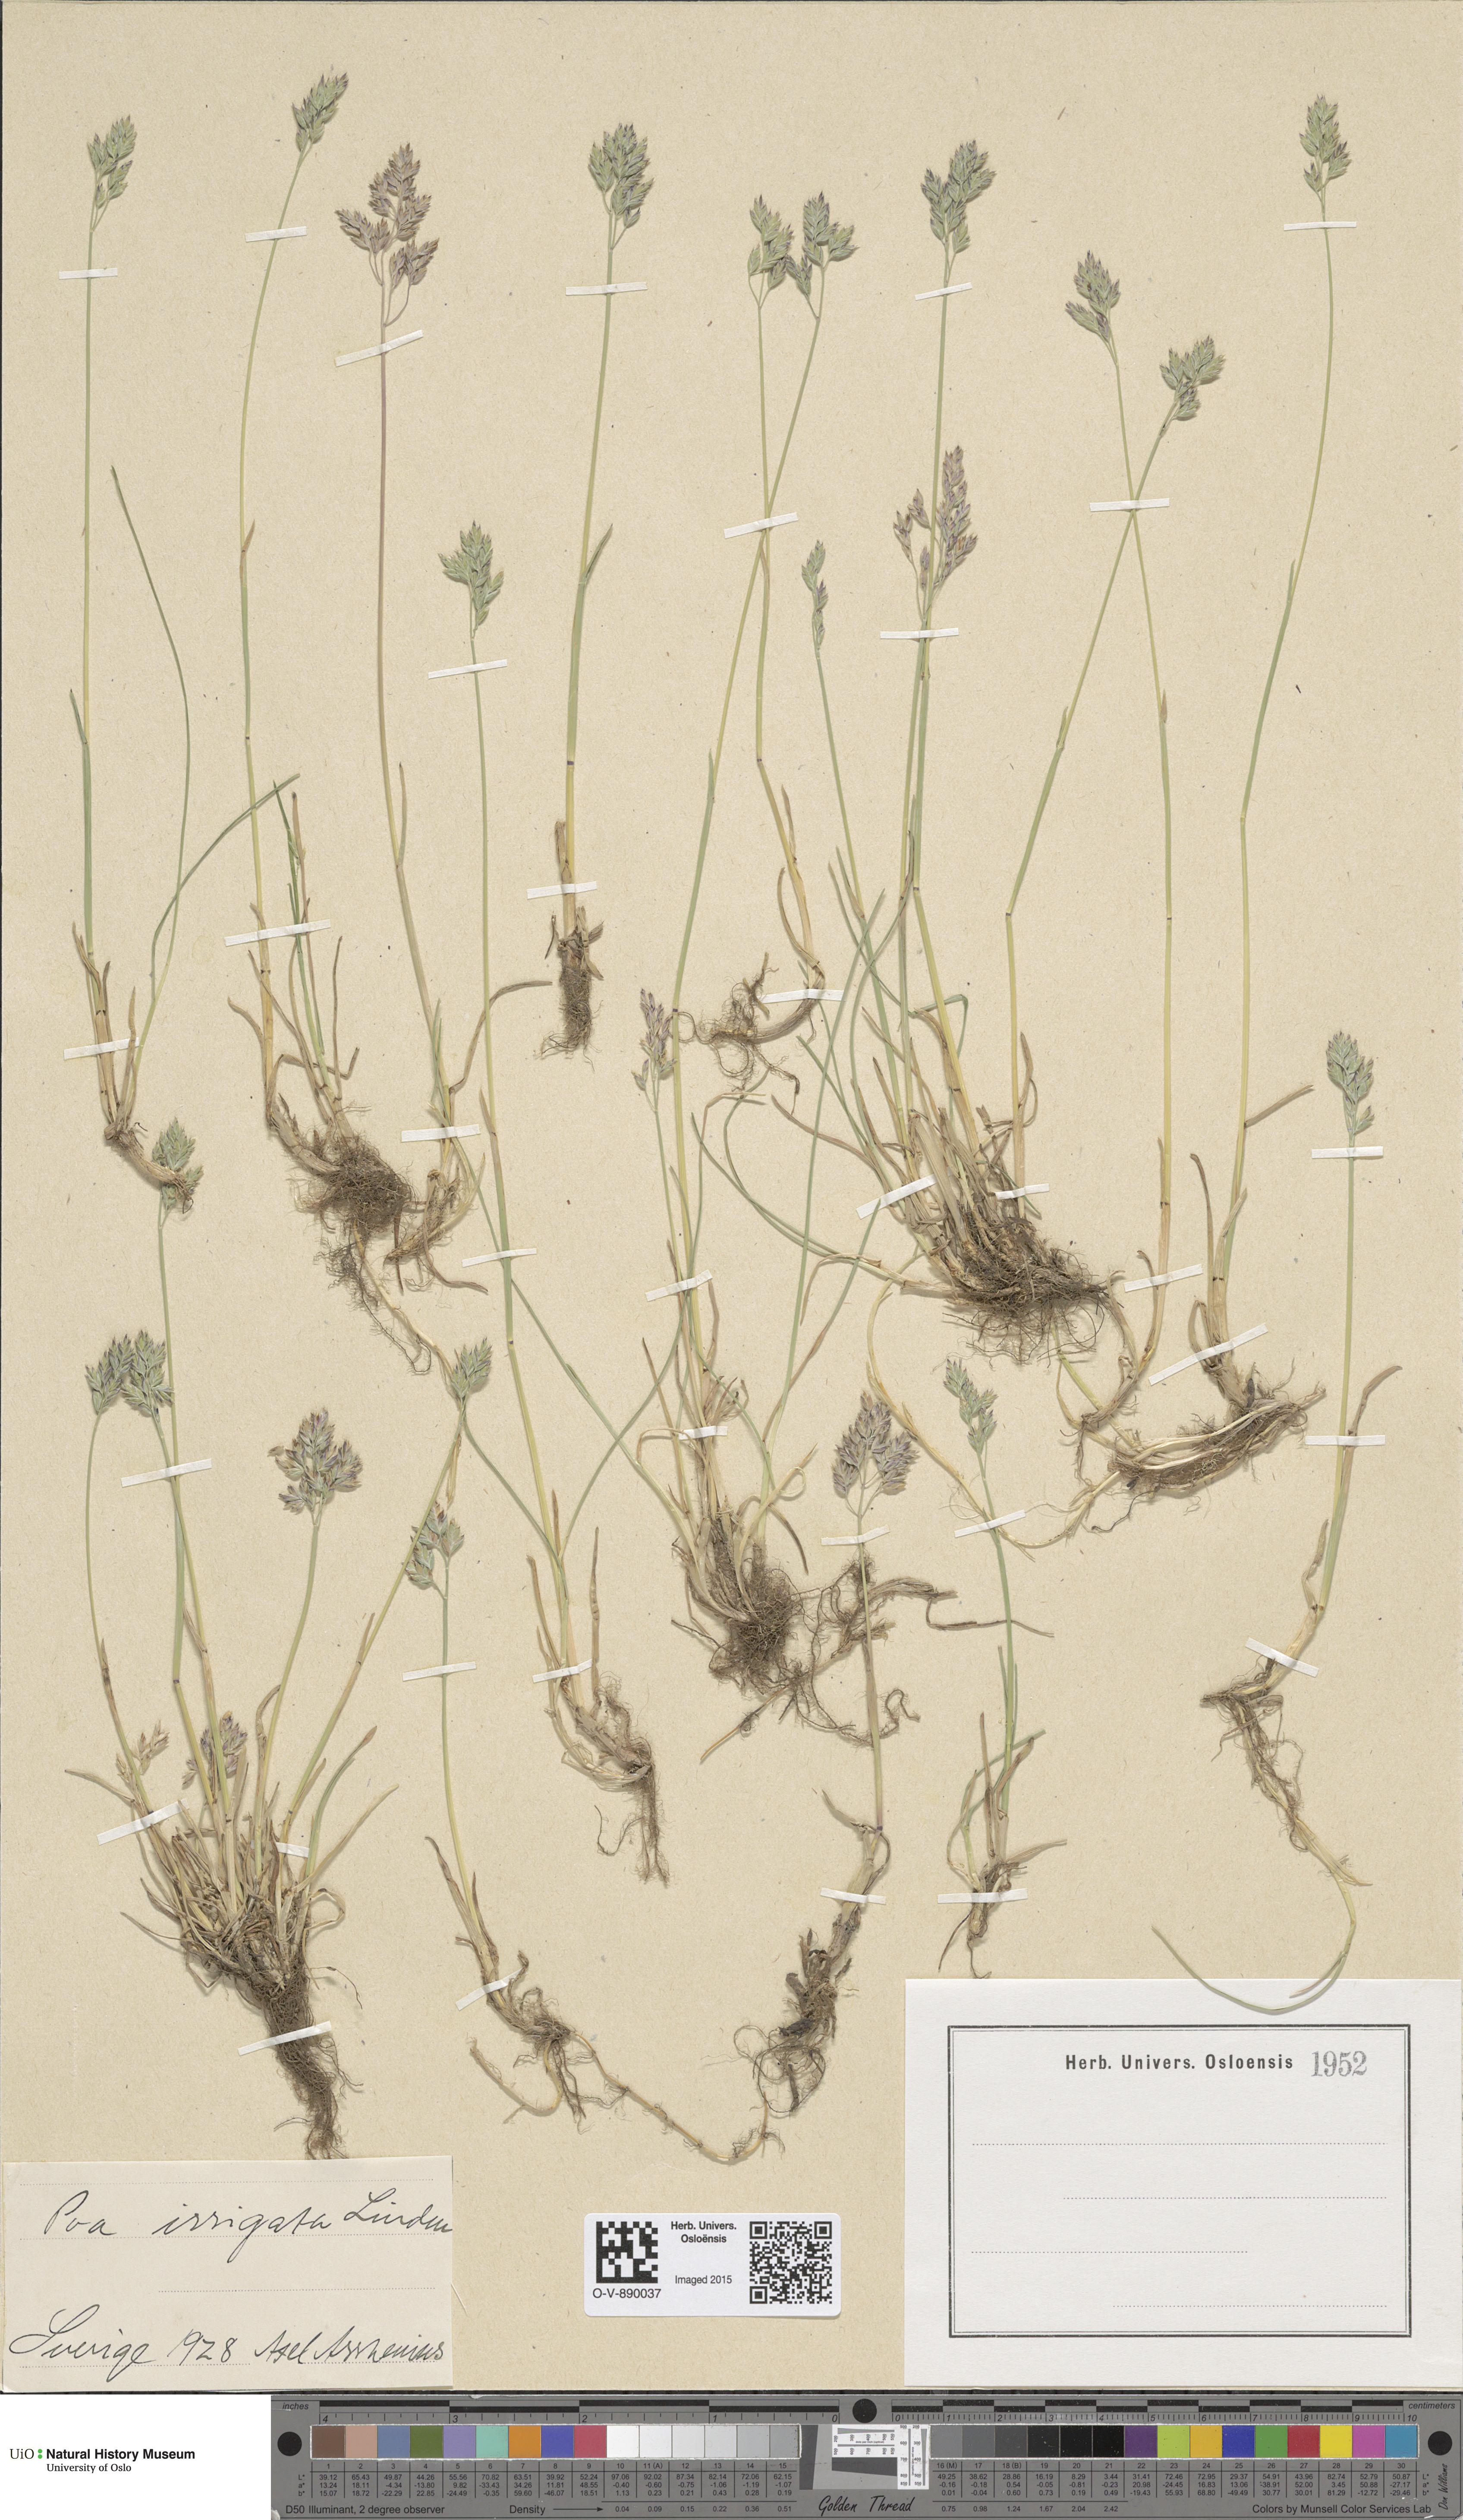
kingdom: Plantae
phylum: Tracheophyta
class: Liliopsida
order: Poales
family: Poaceae
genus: Poa
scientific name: Poa humilis
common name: Spreading meadow-grass
